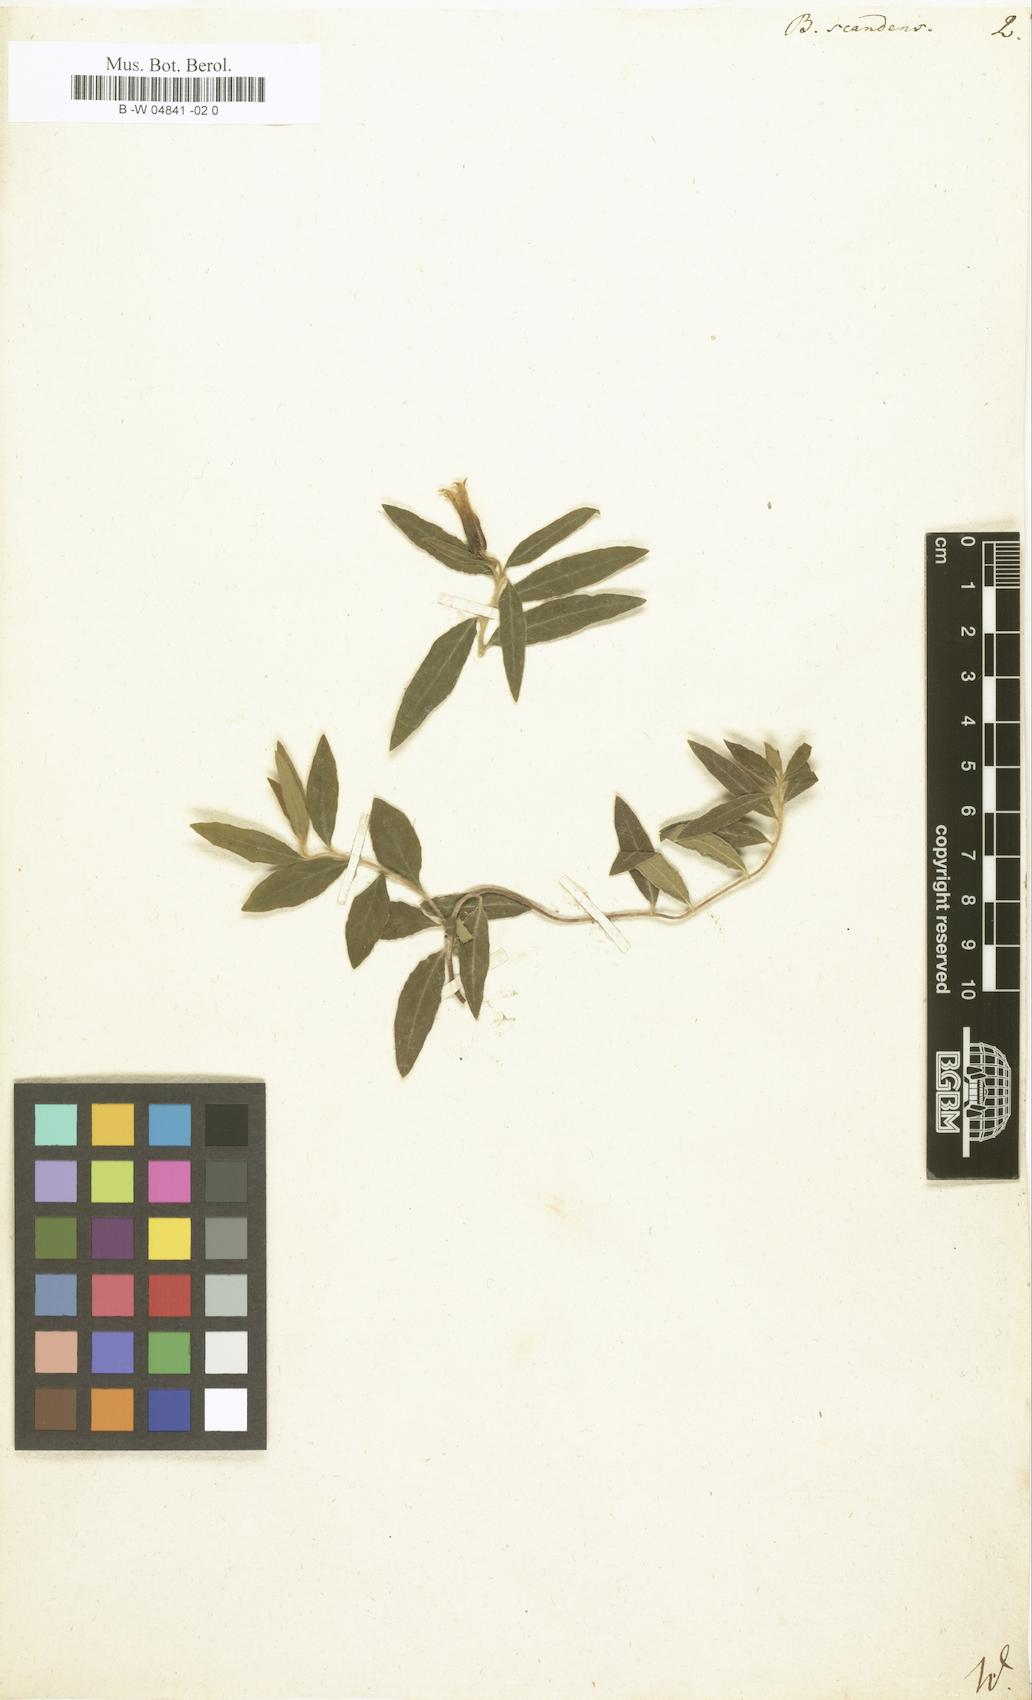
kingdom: Plantae
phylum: Tracheophyta
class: Magnoliopsida
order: Apiales
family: Pittosporaceae
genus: Billardiera
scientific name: Billardiera scandens
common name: Apple-berry
